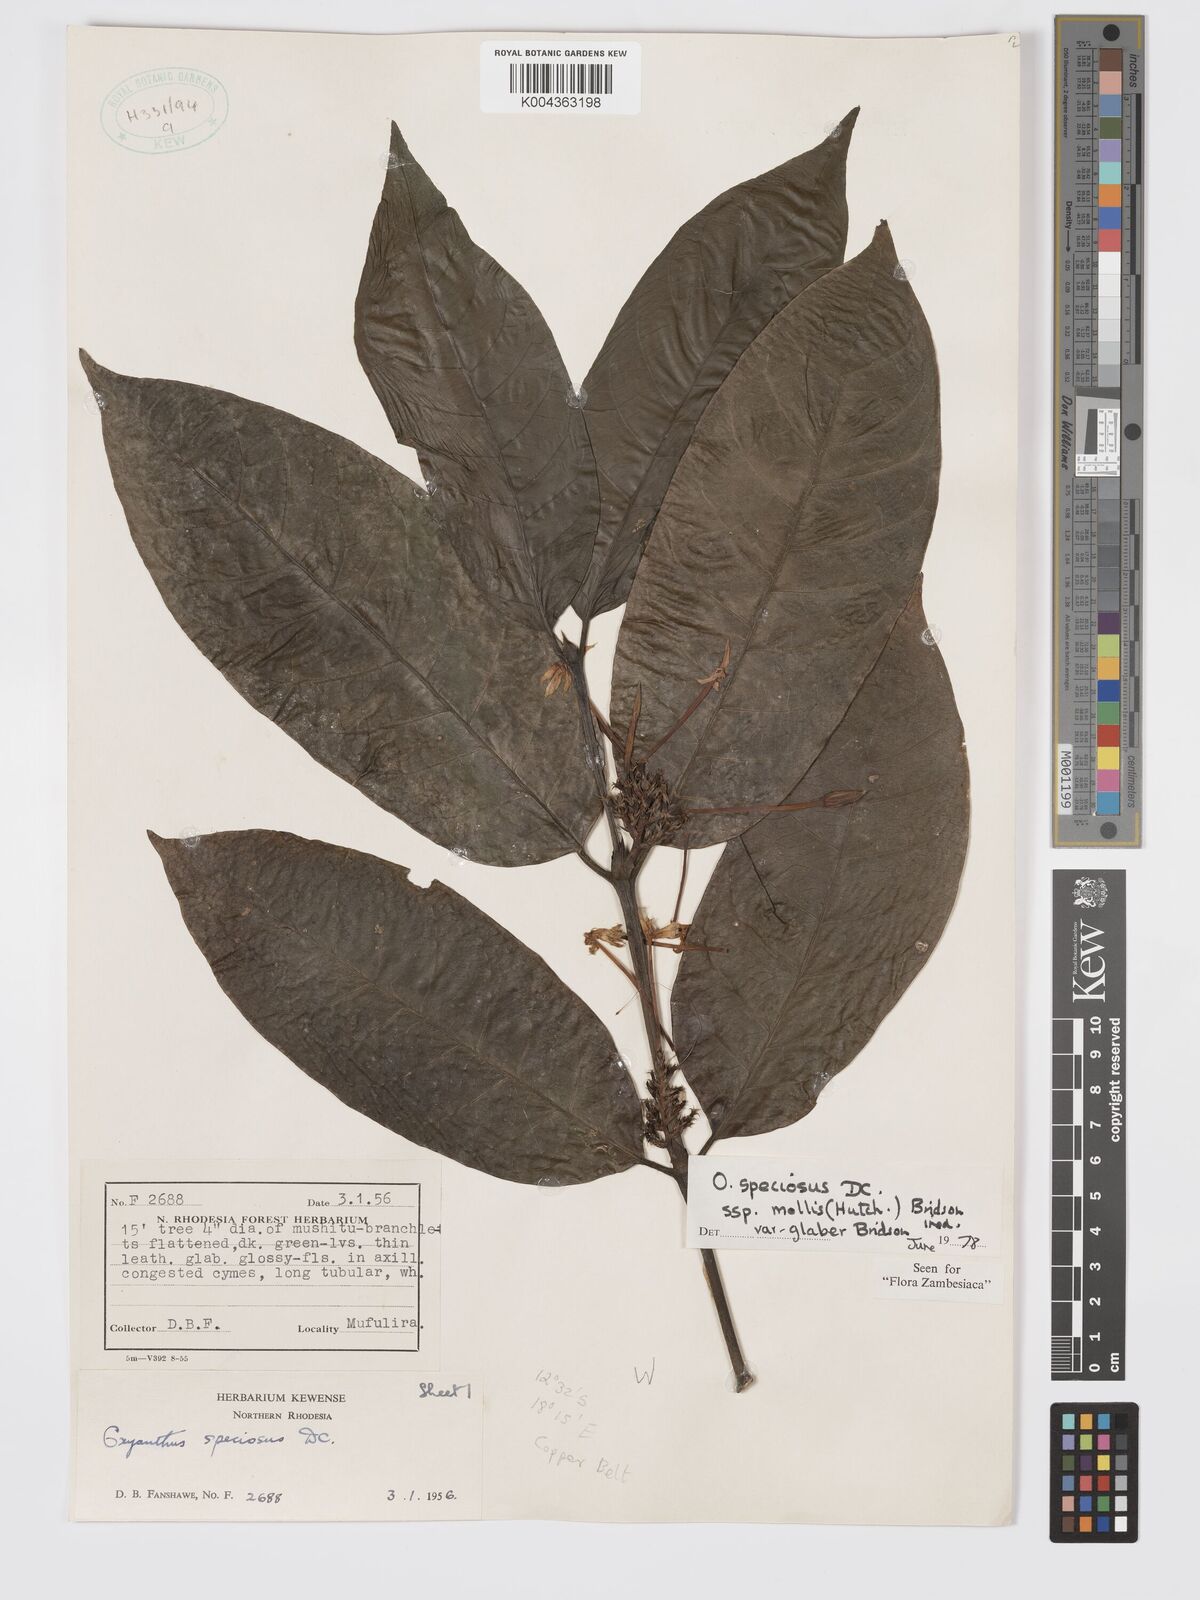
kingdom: Plantae
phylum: Tracheophyta
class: Magnoliopsida
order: Gentianales
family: Rubiaceae
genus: Oxyanthus
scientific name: Oxyanthus speciosus
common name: Whipstick loquat
